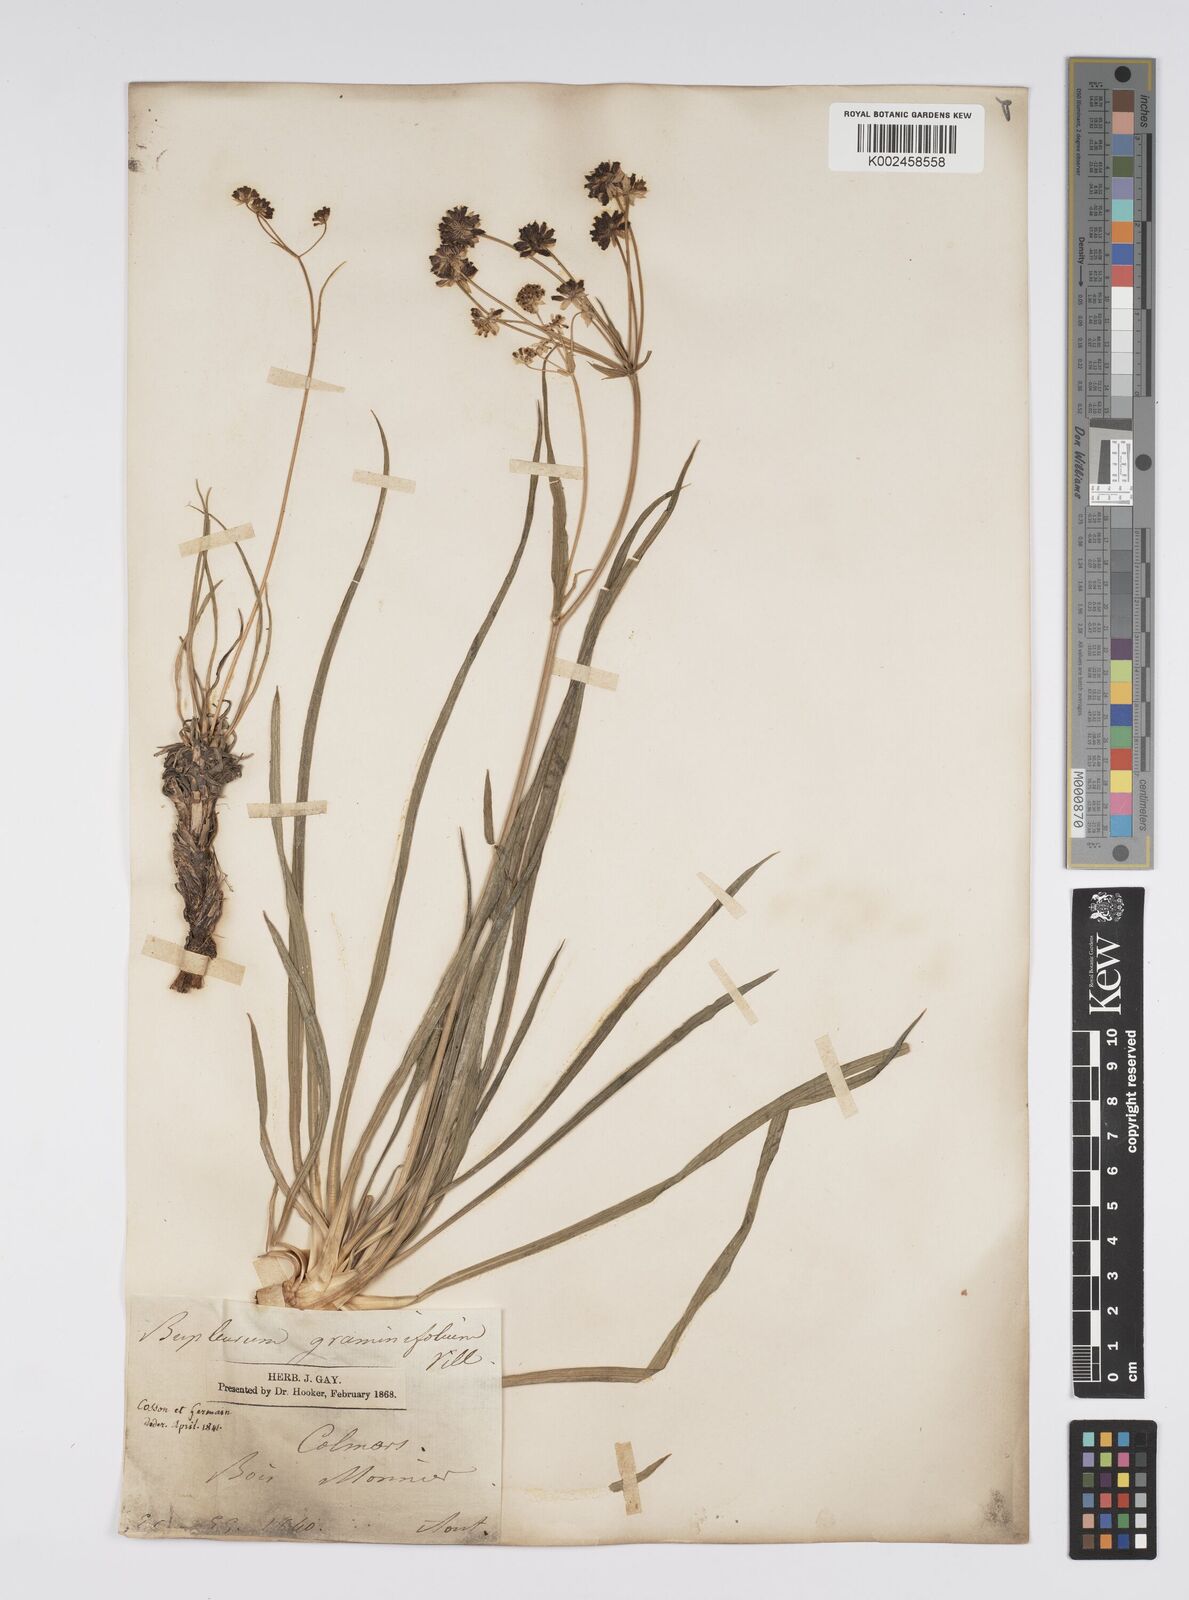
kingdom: Plantae
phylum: Tracheophyta
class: Magnoliopsida
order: Apiales
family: Apiaceae
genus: Bupleurum
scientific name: Bupleurum petraeum
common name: Rock hare's-ear
